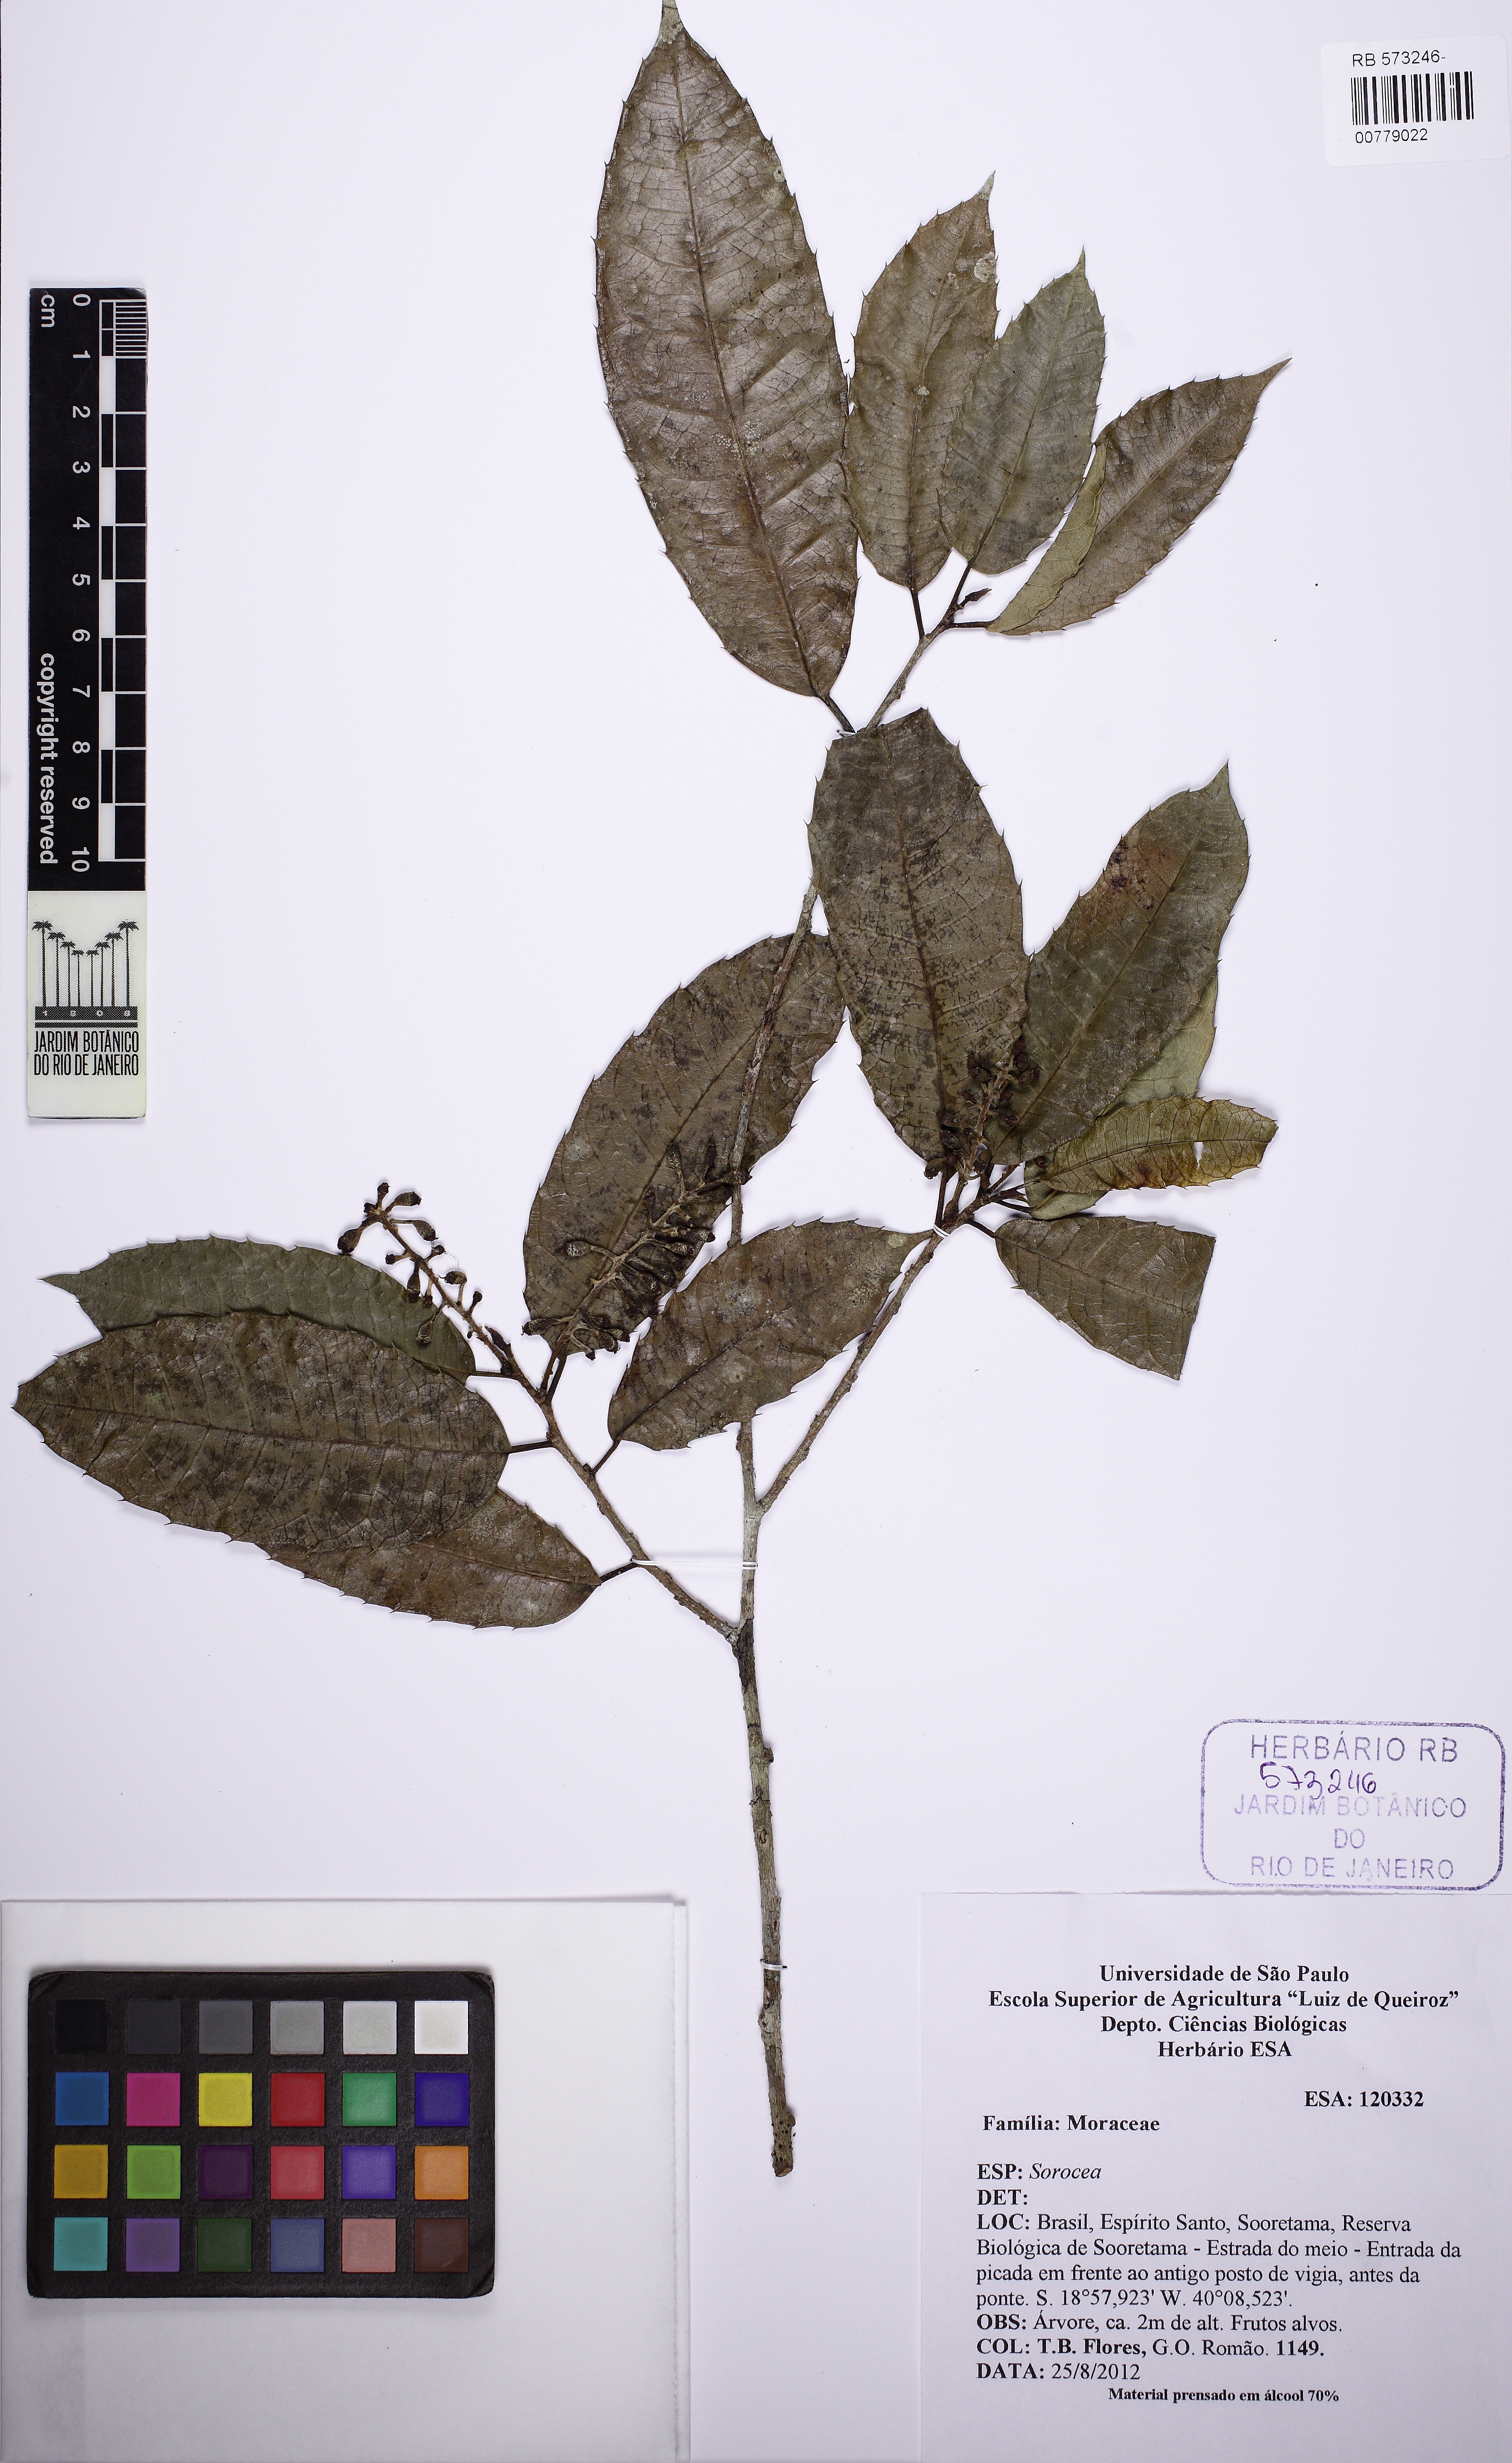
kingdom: Plantae
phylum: Tracheophyta
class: Magnoliopsida
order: Rosales
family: Moraceae
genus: Sorocea
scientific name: Sorocea
